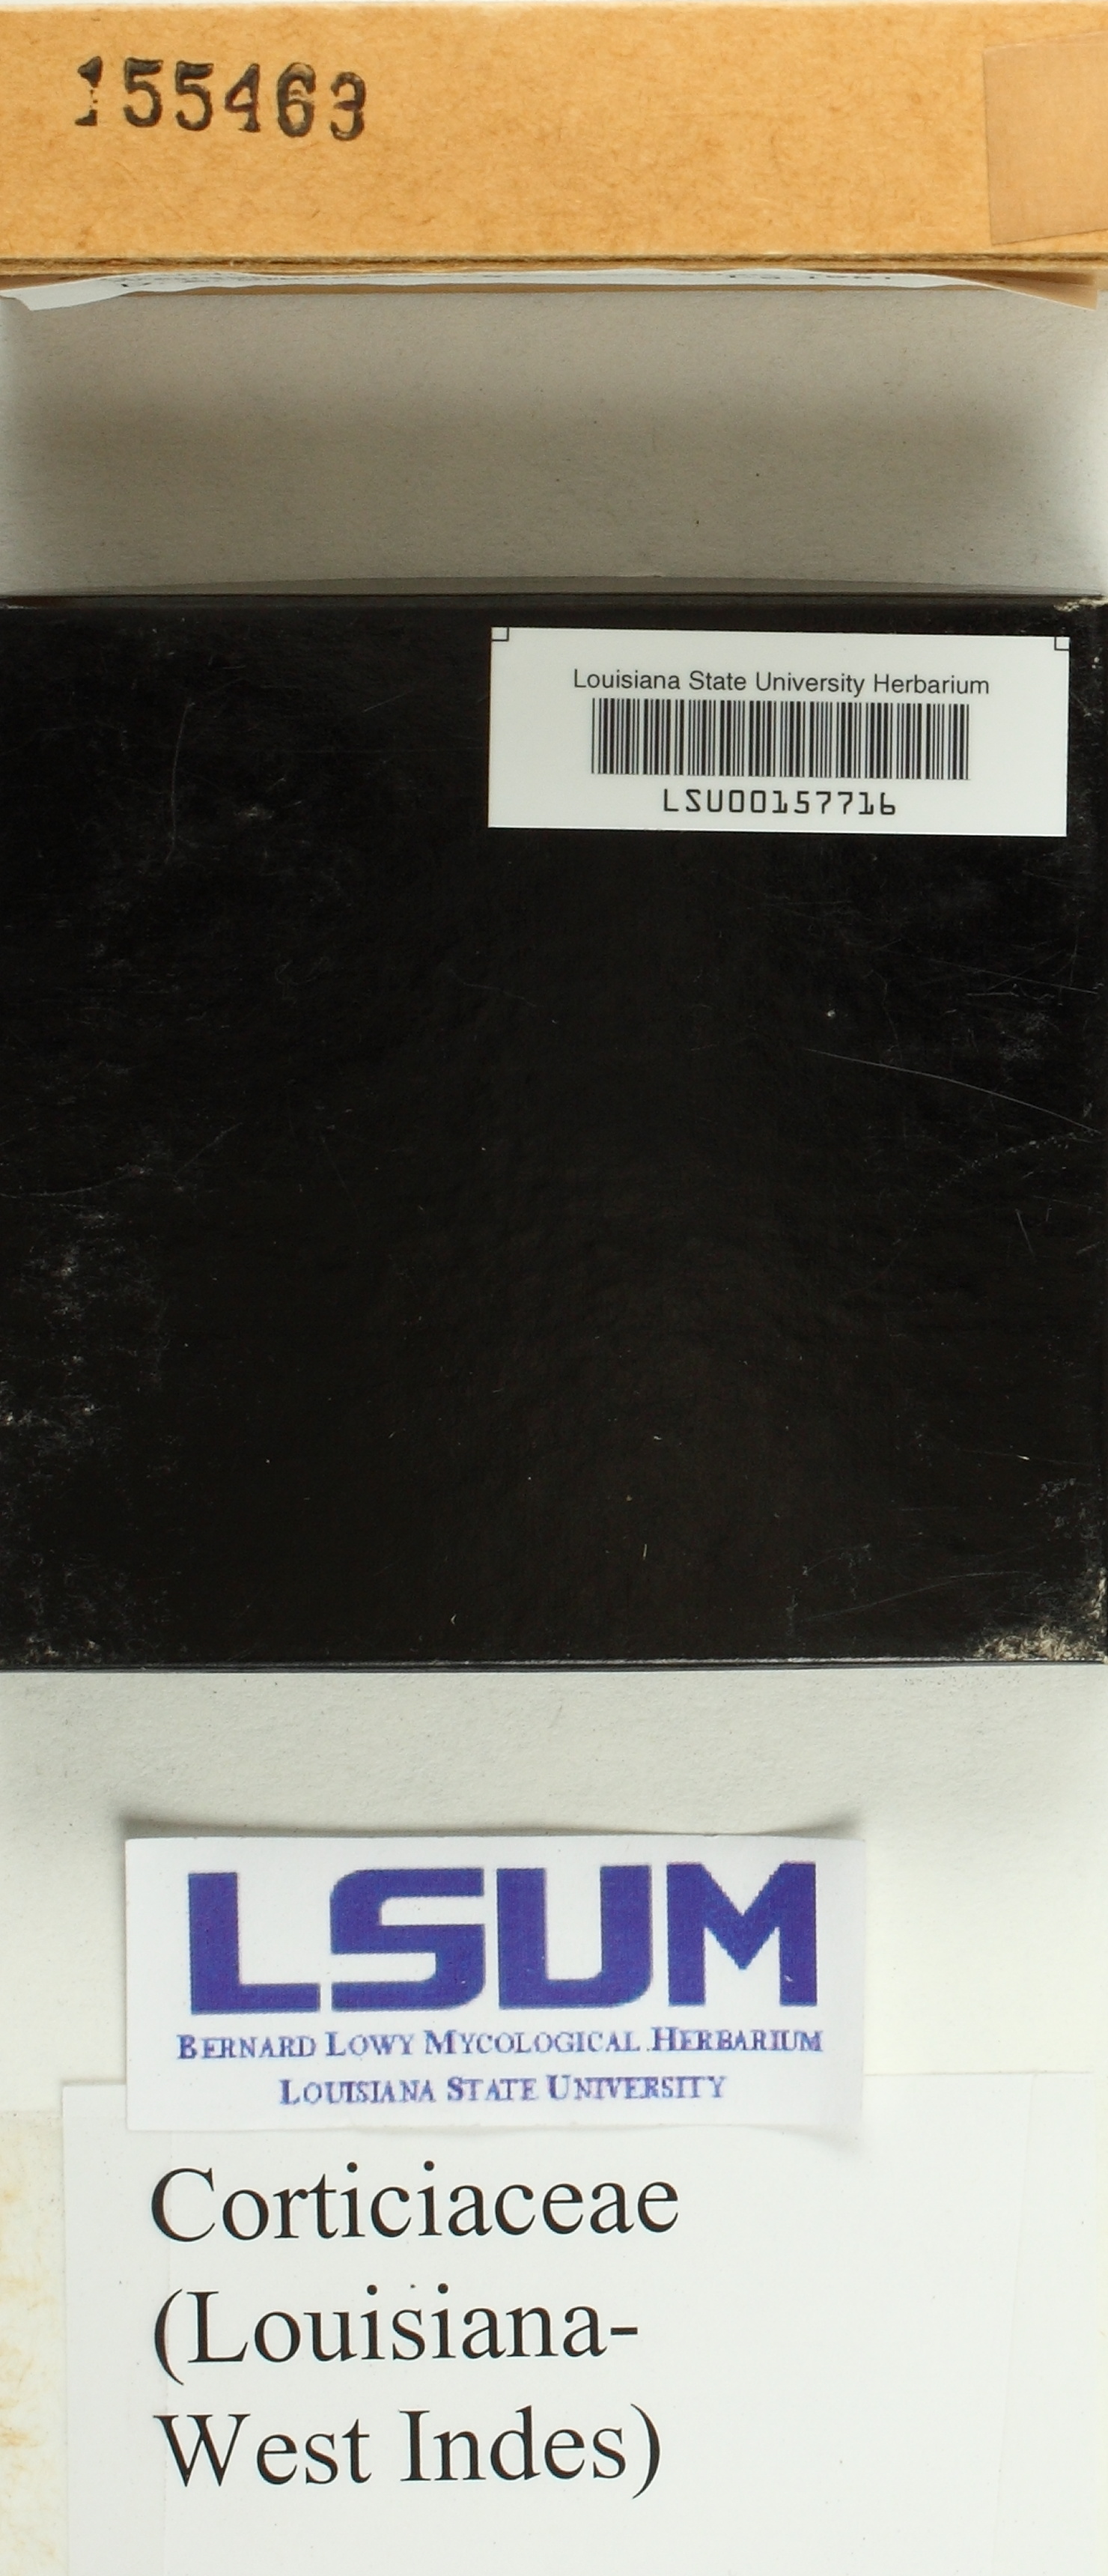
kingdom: Fungi
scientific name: Fungi
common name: Fungi
